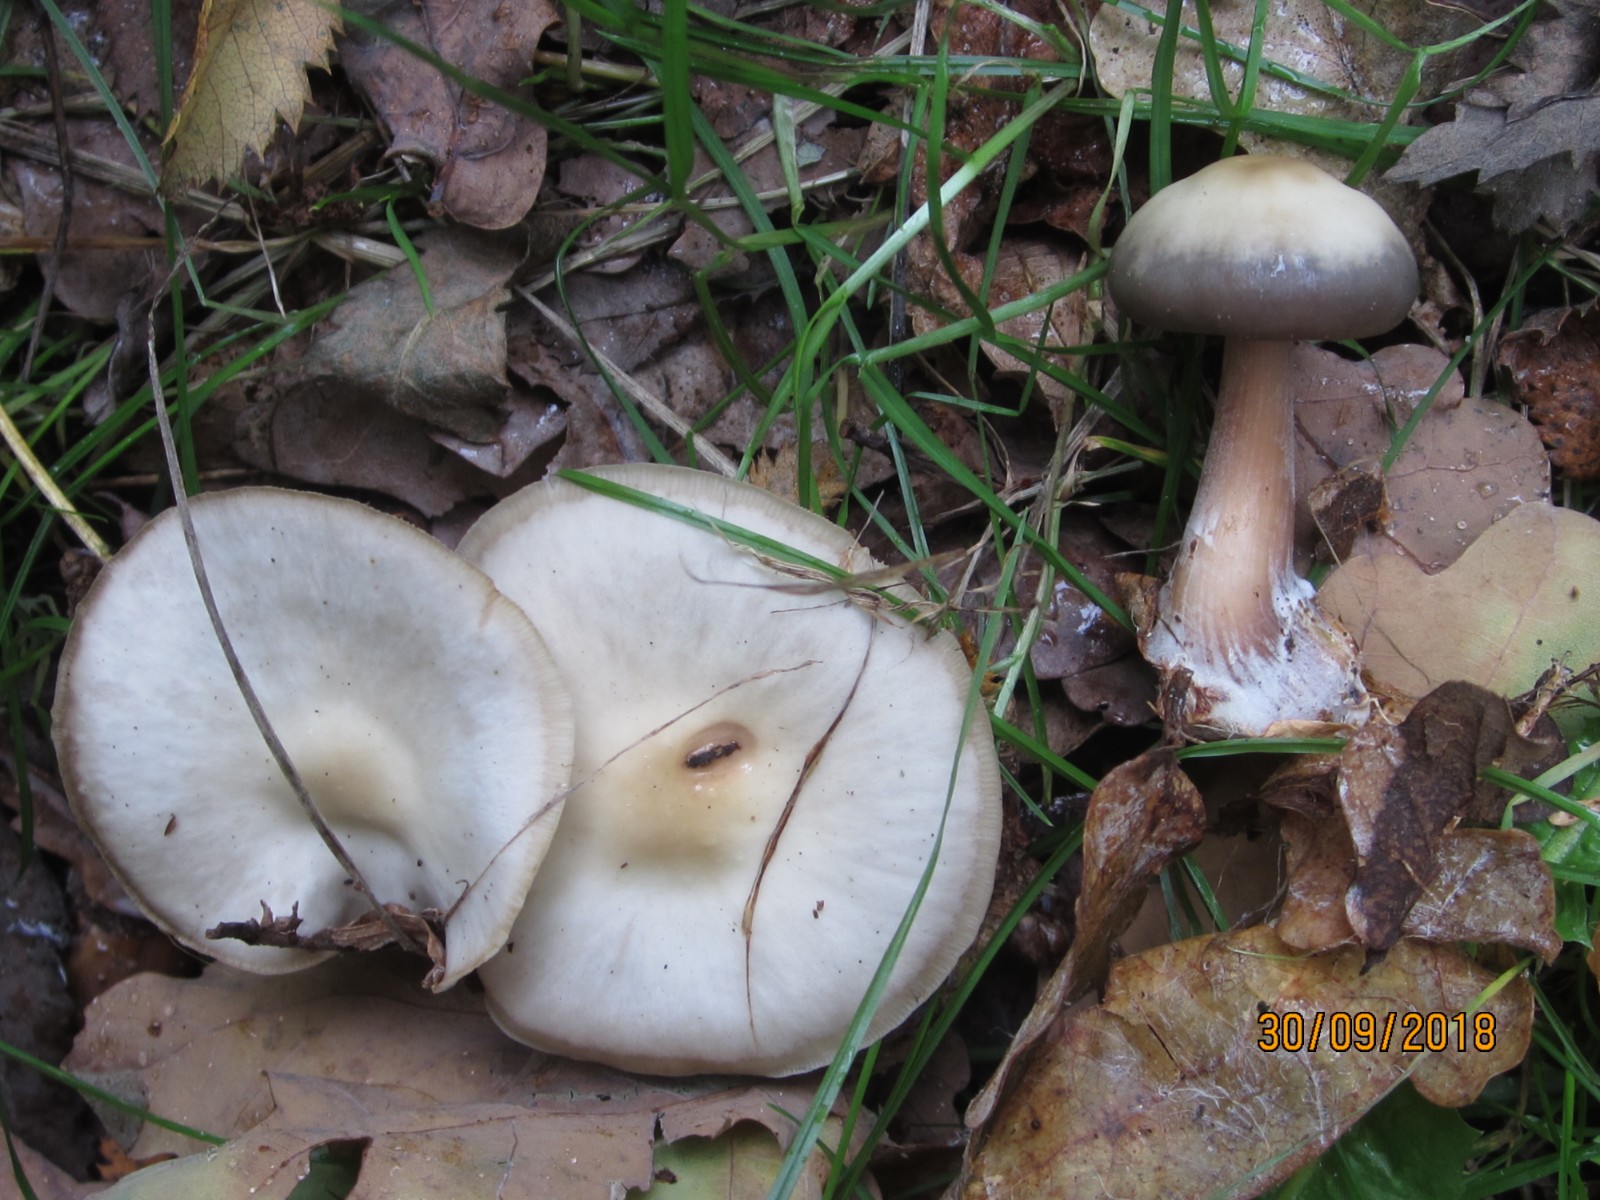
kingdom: Fungi
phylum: Basidiomycota
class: Agaricomycetes
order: Agaricales
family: Omphalotaceae
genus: Rhodocollybia
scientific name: Rhodocollybia asema
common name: horngrå fladhat
